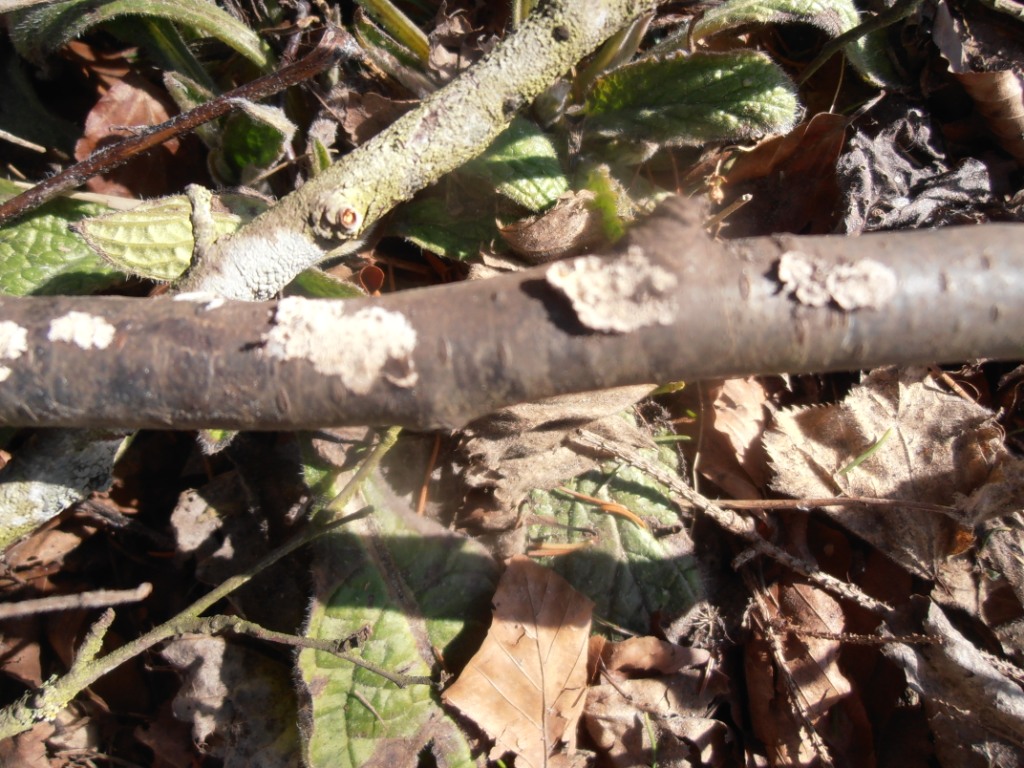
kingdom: Fungi
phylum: Basidiomycota
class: Agaricomycetes
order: Agaricales
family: Physalacriaceae
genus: Cylindrobasidium
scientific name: Cylindrobasidium evolvens
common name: sprækkehinde
